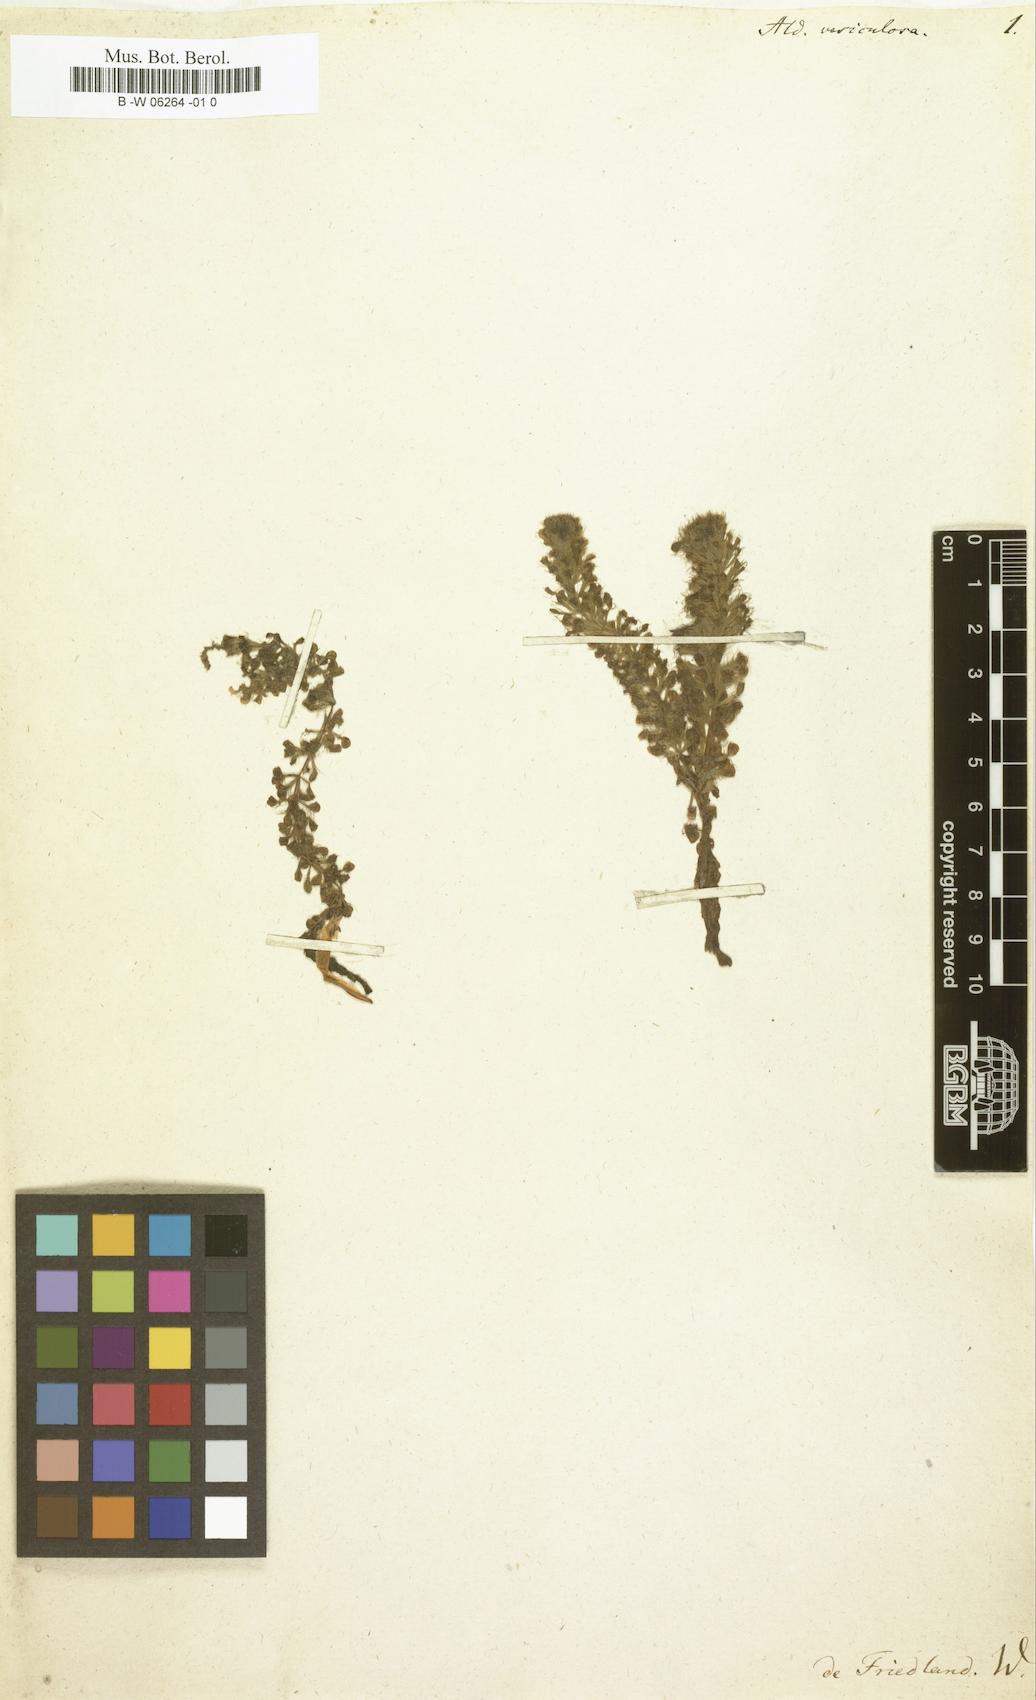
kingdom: Plantae
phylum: Tracheophyta
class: Magnoliopsida
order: Caryophyllales
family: Droseraceae
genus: Aldrovanda
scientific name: Aldrovanda vesiculosa
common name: Waterwheel plant
